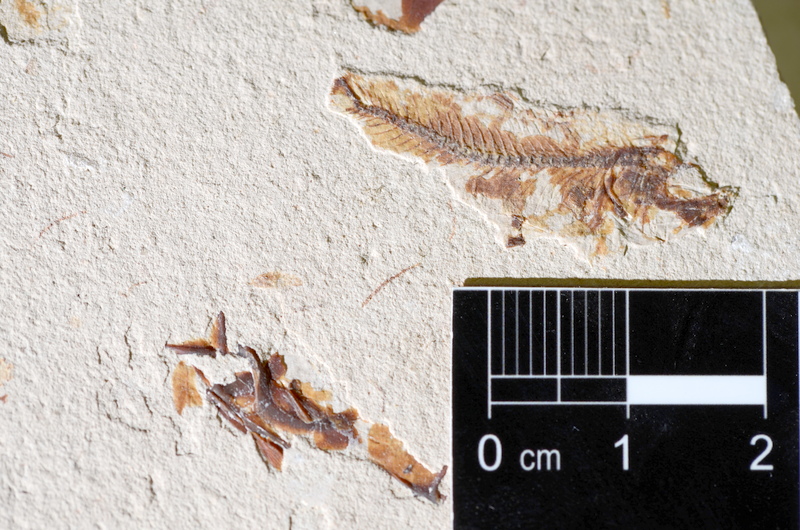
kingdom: Animalia
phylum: Chordata
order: Clupeiformes
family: Clupeidae
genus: Clupea
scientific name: Clupea harengus
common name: Herring
